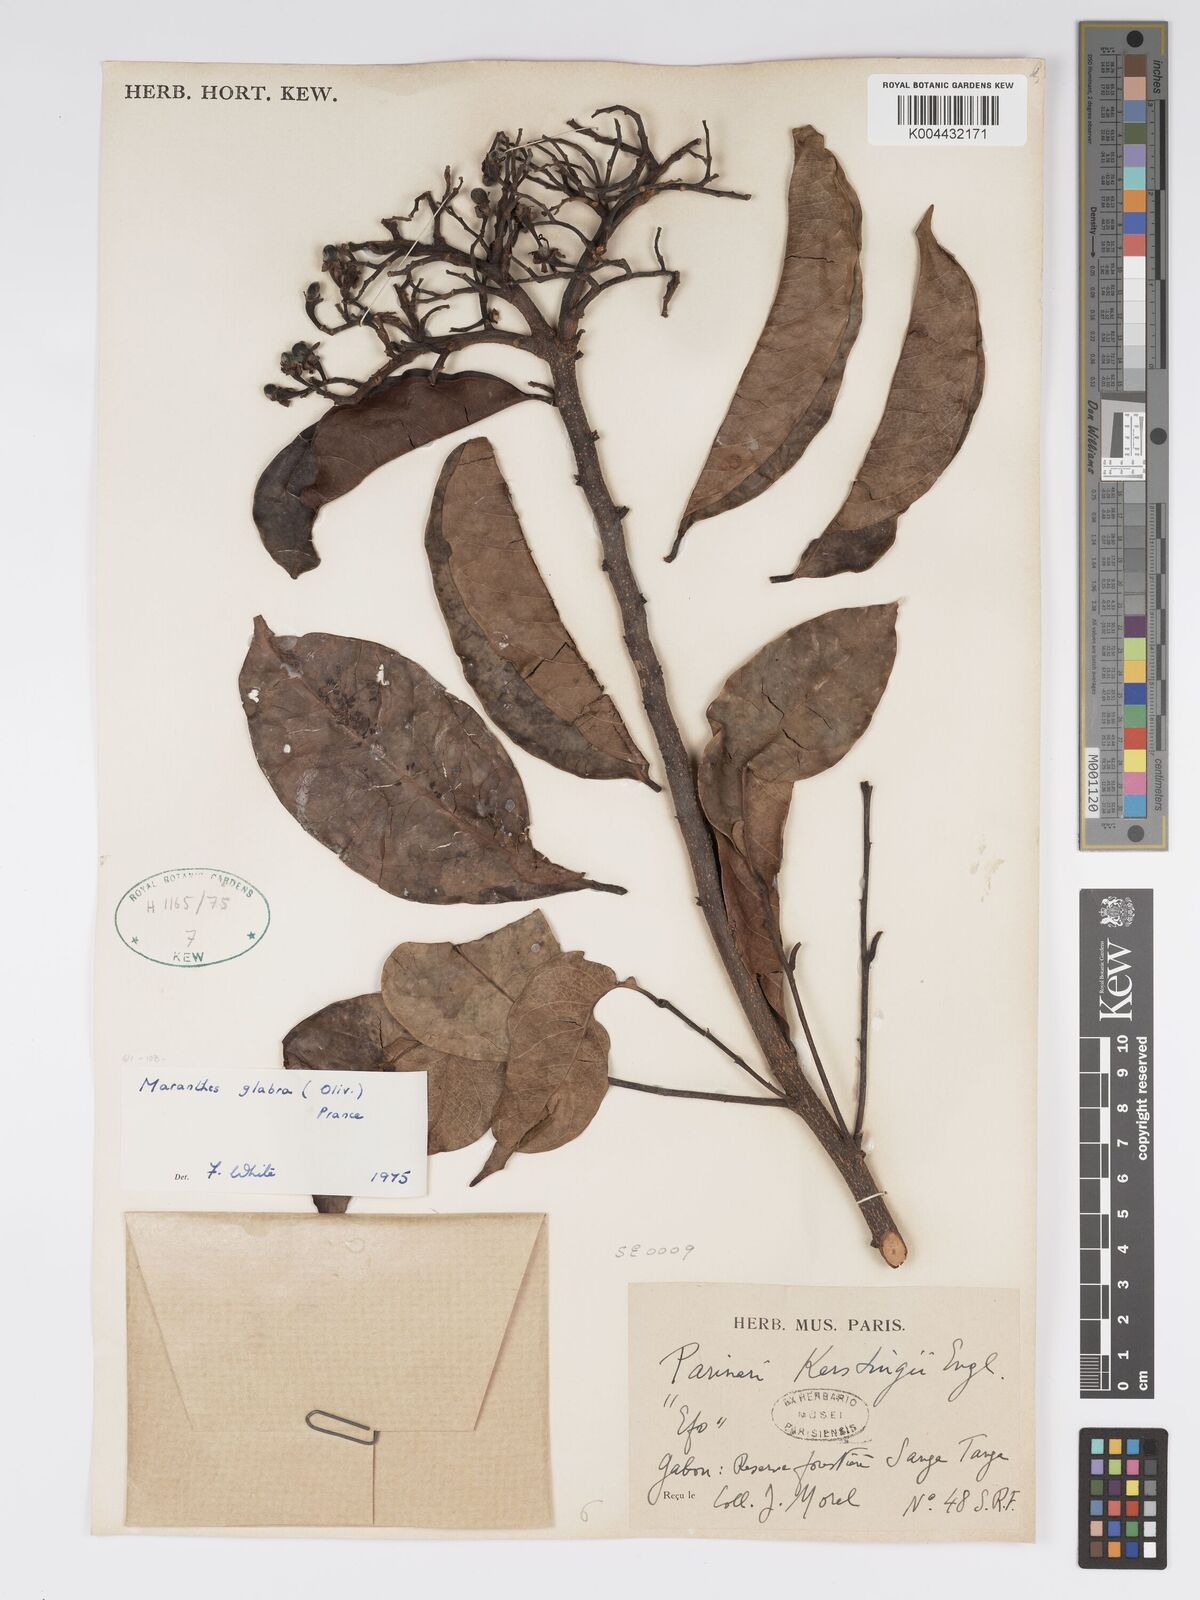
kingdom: Plantae
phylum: Tracheophyta
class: Magnoliopsida
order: Malpighiales
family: Chrysobalanaceae
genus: Maranthes
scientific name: Maranthes glabra
